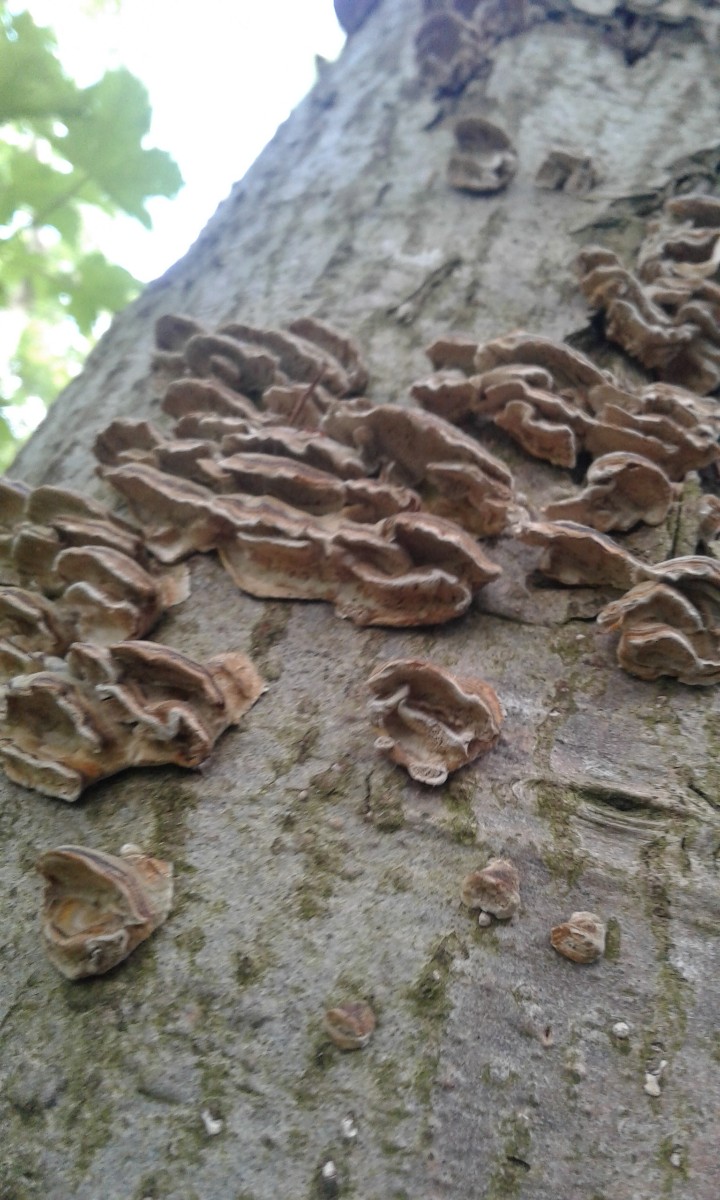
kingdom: Fungi
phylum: Basidiomycota
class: Agaricomycetes
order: Polyporales
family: Polyporaceae
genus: Trametes
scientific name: Trametes versicolor
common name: broget læderporesvamp
